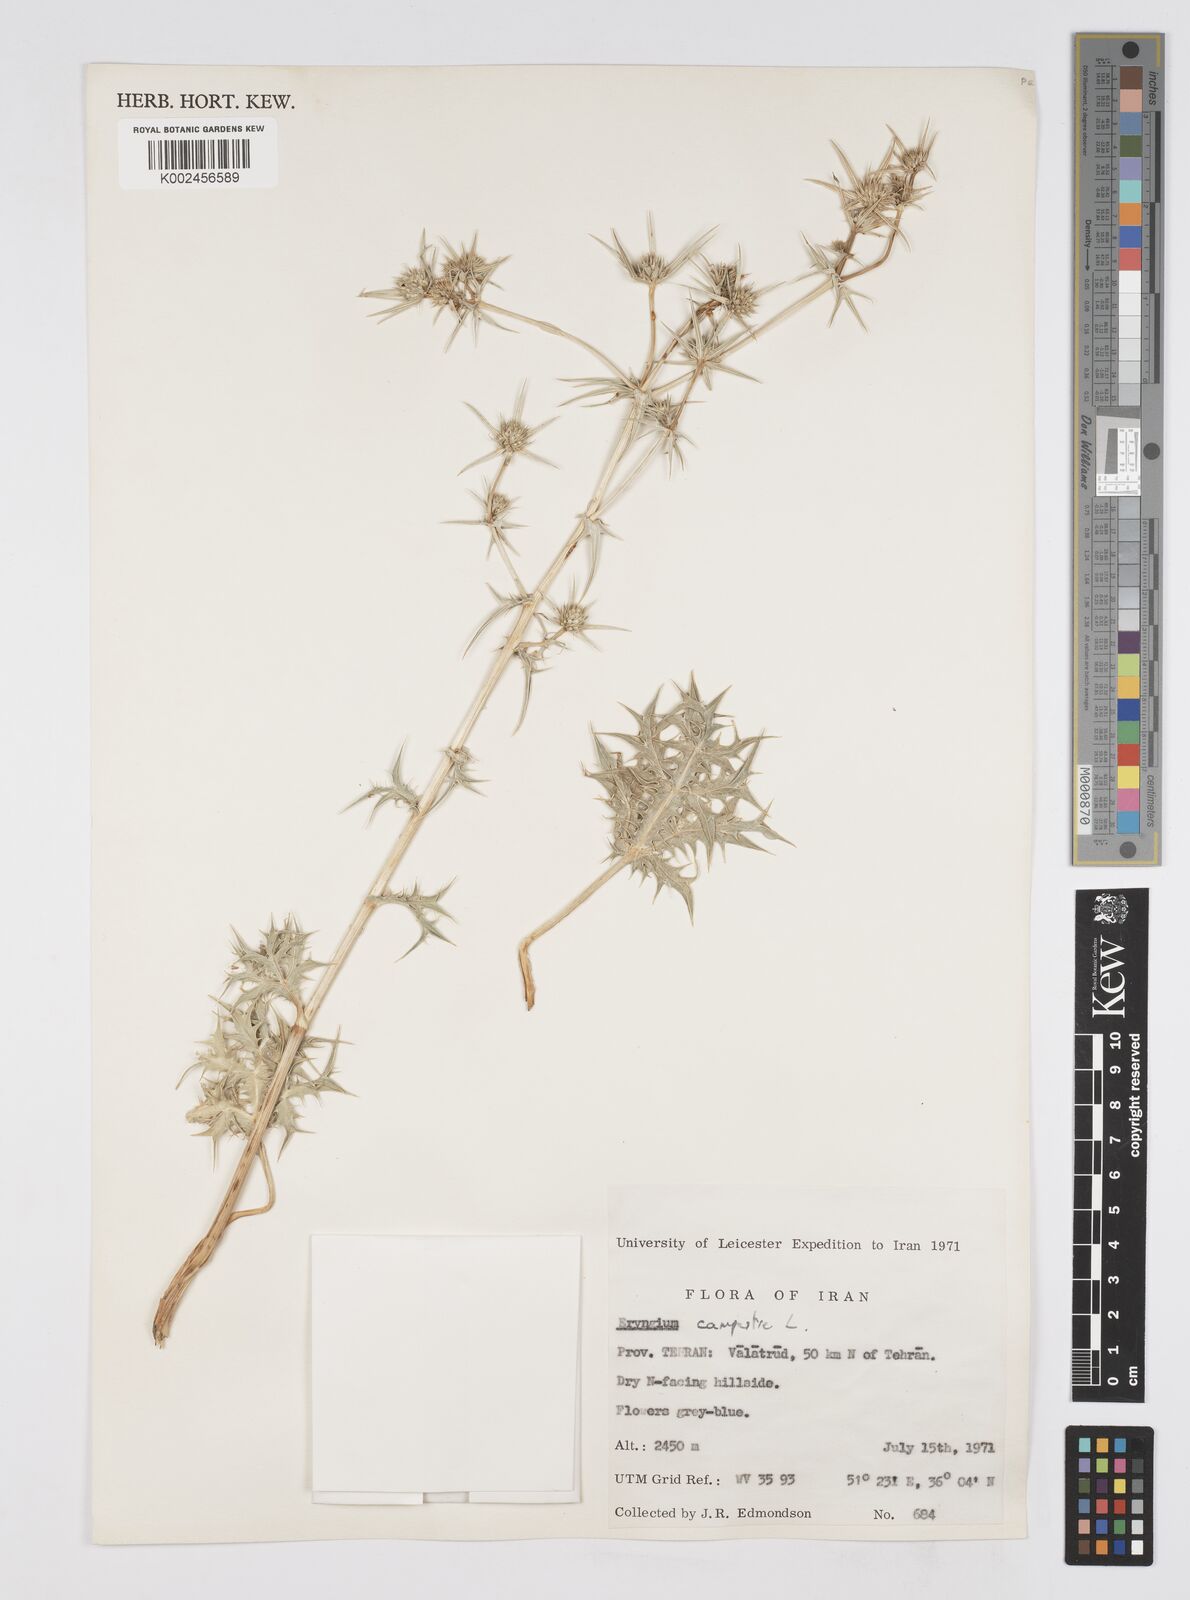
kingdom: Plantae
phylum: Tracheophyta
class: Magnoliopsida
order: Apiales
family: Apiaceae
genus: Eryngium
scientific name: Eryngium campestre
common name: Field eryngo
